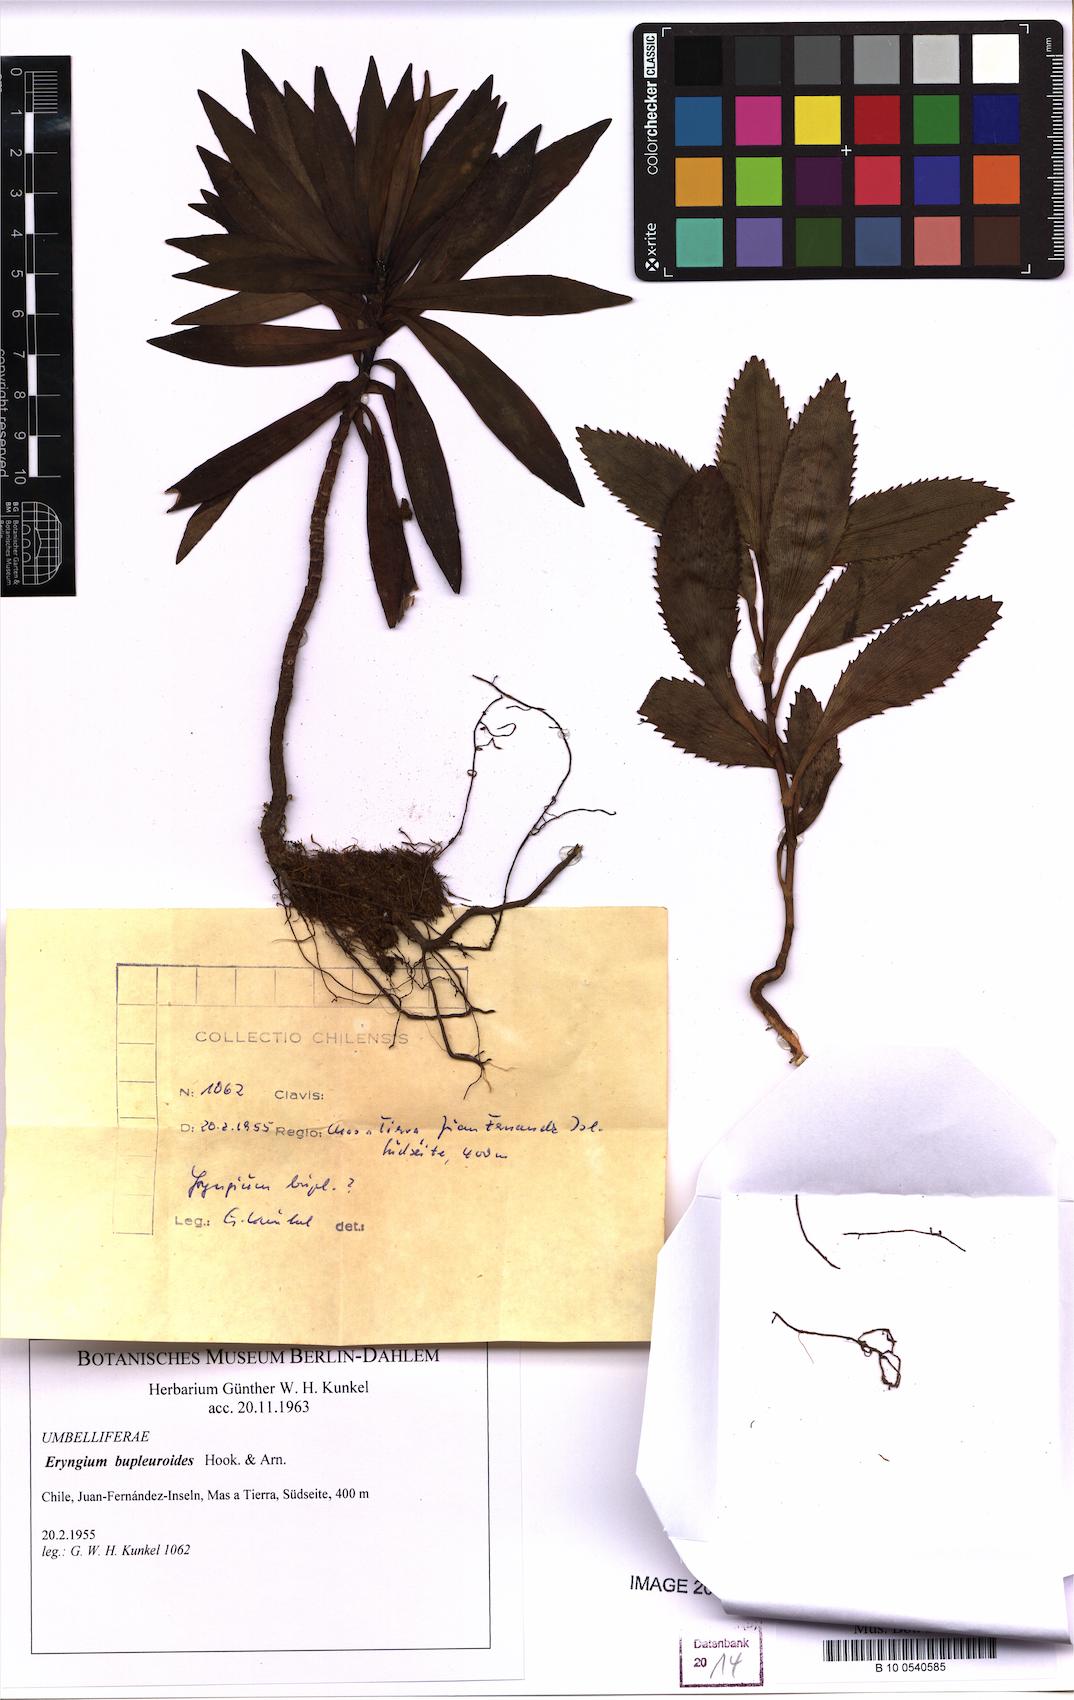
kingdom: Plantae
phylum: Tracheophyta
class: Magnoliopsida
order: Apiales
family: Apiaceae
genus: Eryngium
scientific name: Eryngium bupleuroides
